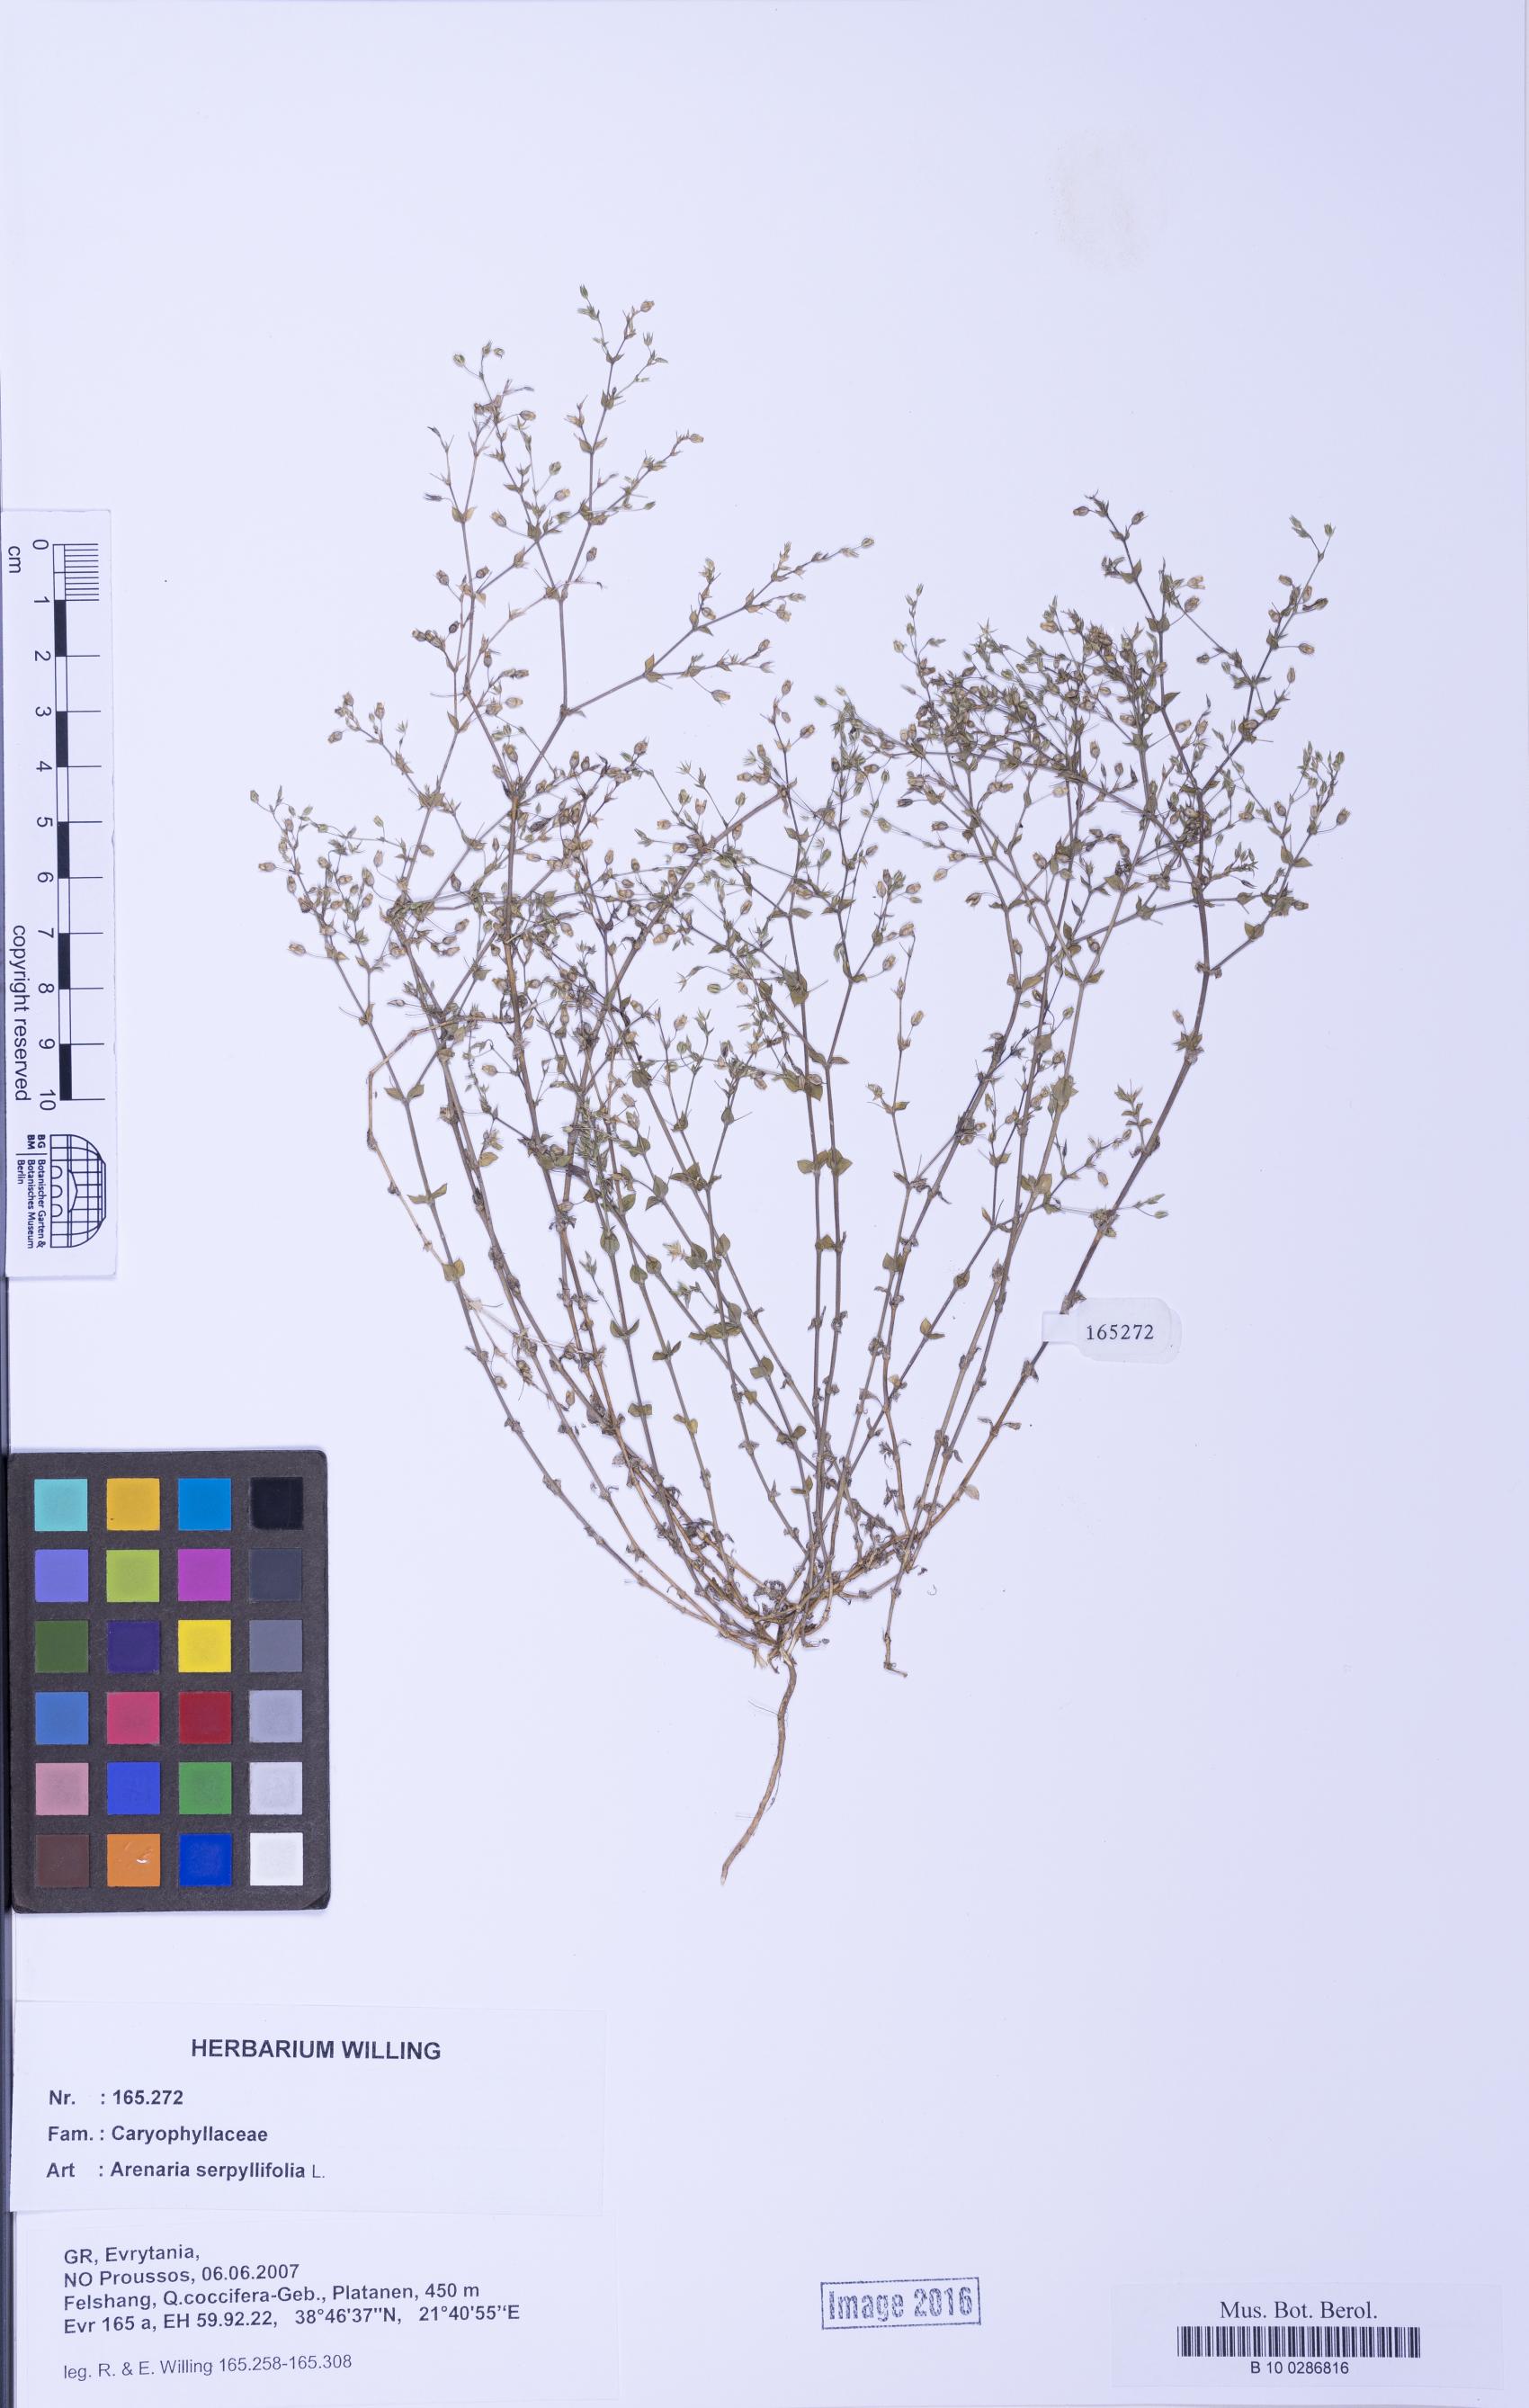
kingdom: Plantae
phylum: Tracheophyta
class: Magnoliopsida
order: Caryophyllales
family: Caryophyllaceae
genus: Arenaria
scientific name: Arenaria serpyllifolia
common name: Thyme-leaved sandwort
